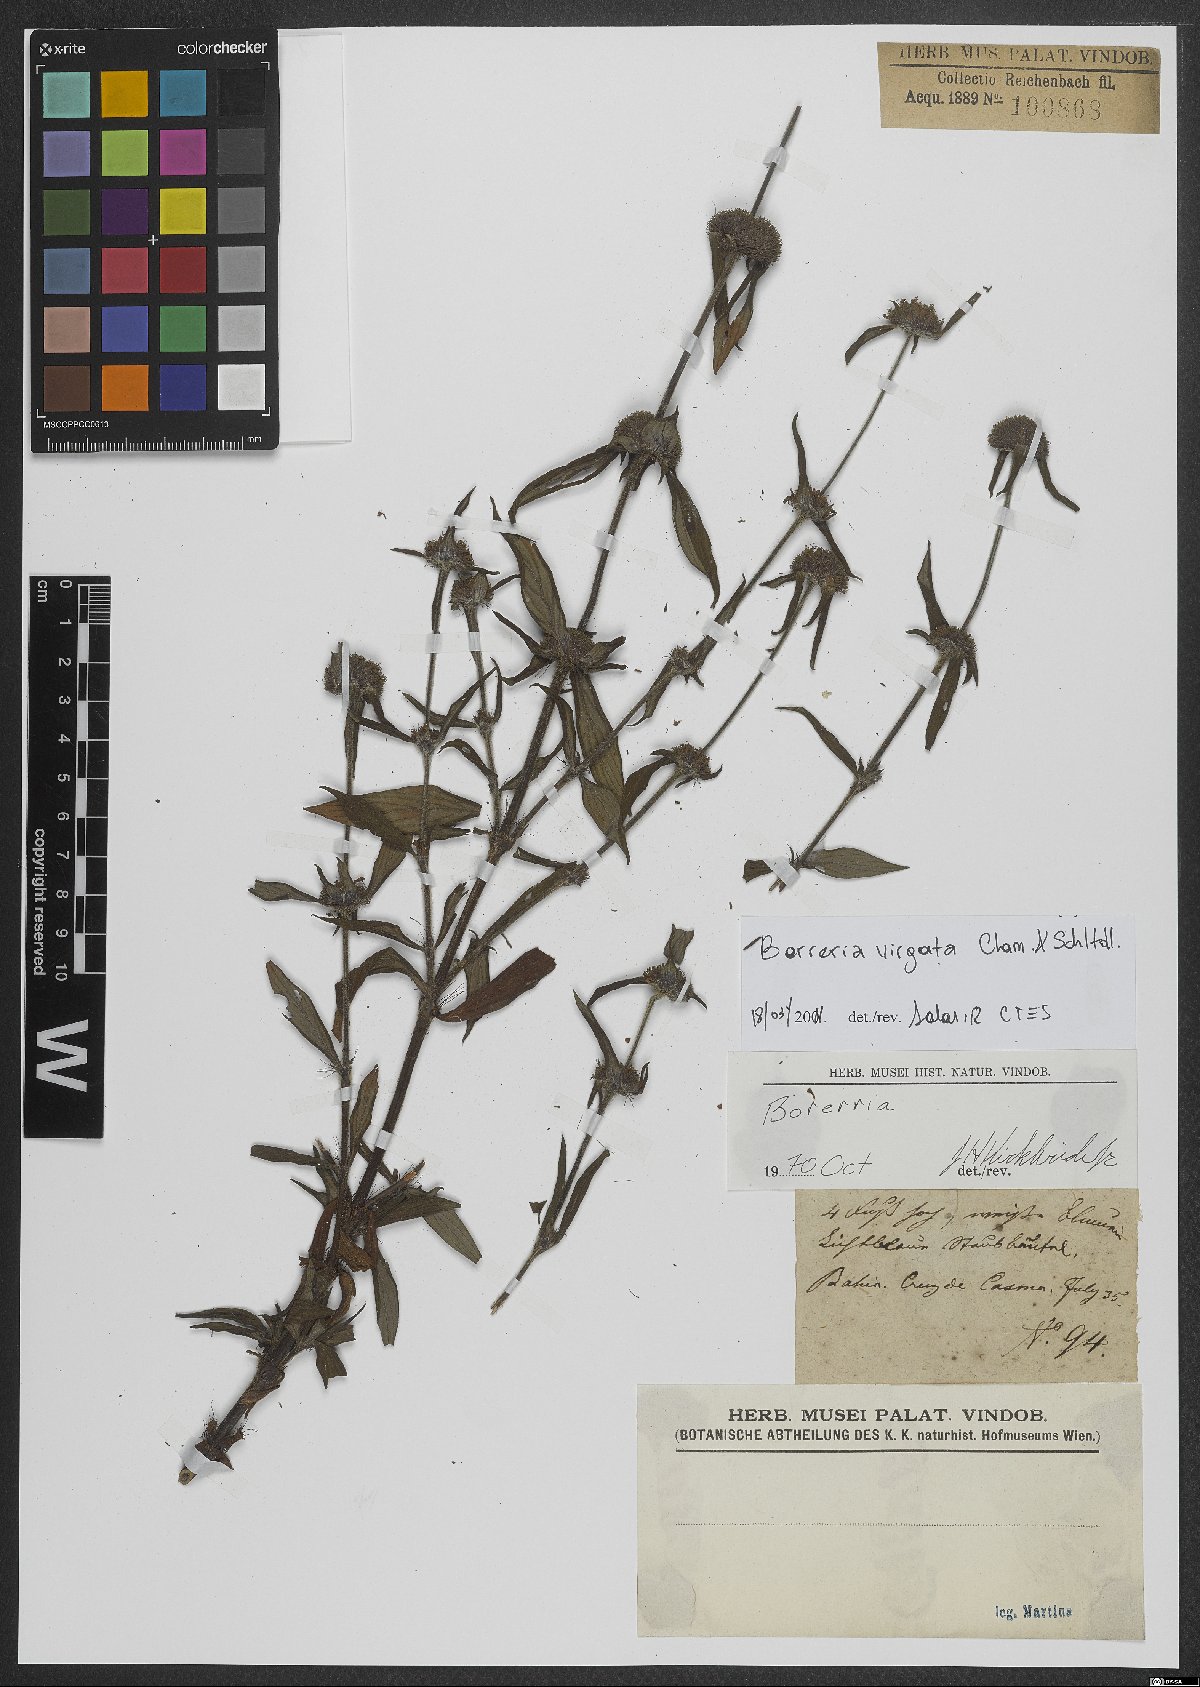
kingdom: Plantae
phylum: Tracheophyta
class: Magnoliopsida
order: Gentianales
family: Rubiaceae
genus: Spermacoce
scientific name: Spermacoce ocymifolia
